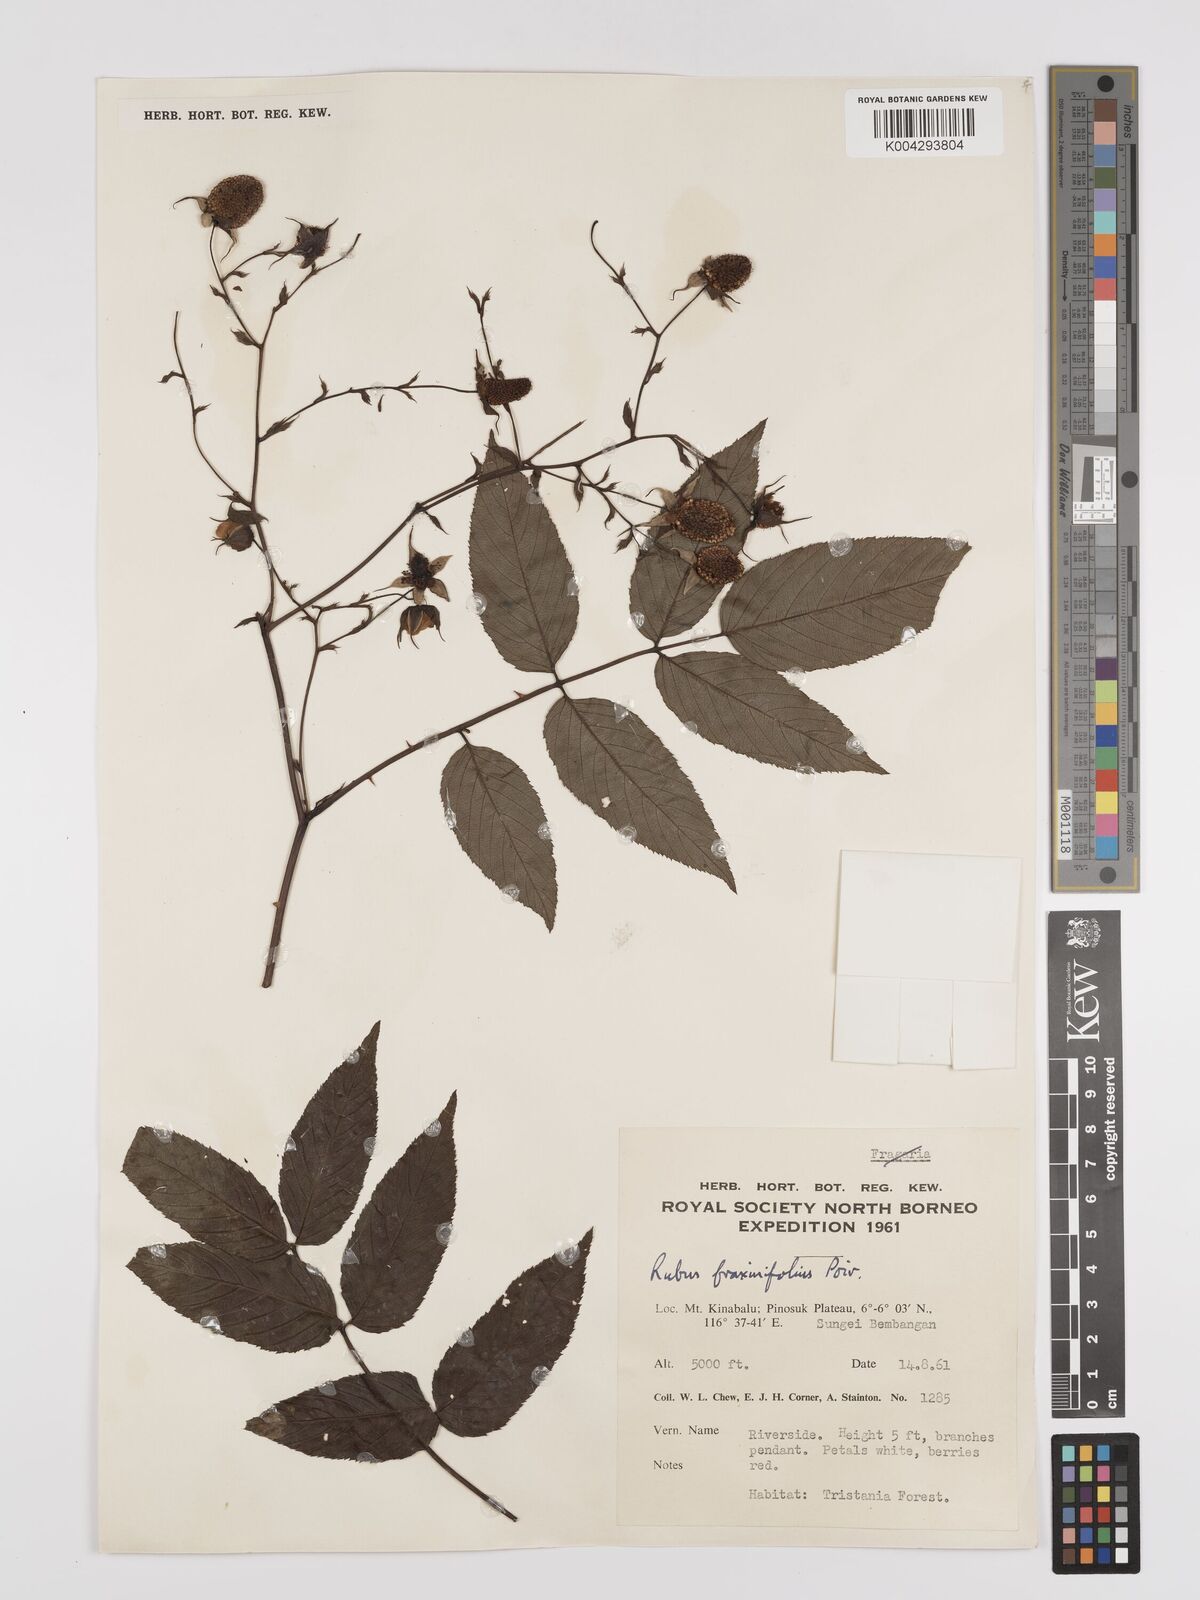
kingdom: Plantae
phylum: Tracheophyta
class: Magnoliopsida
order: Rosales
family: Rosaceae
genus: Rubus
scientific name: Rubus fraxinifolius
